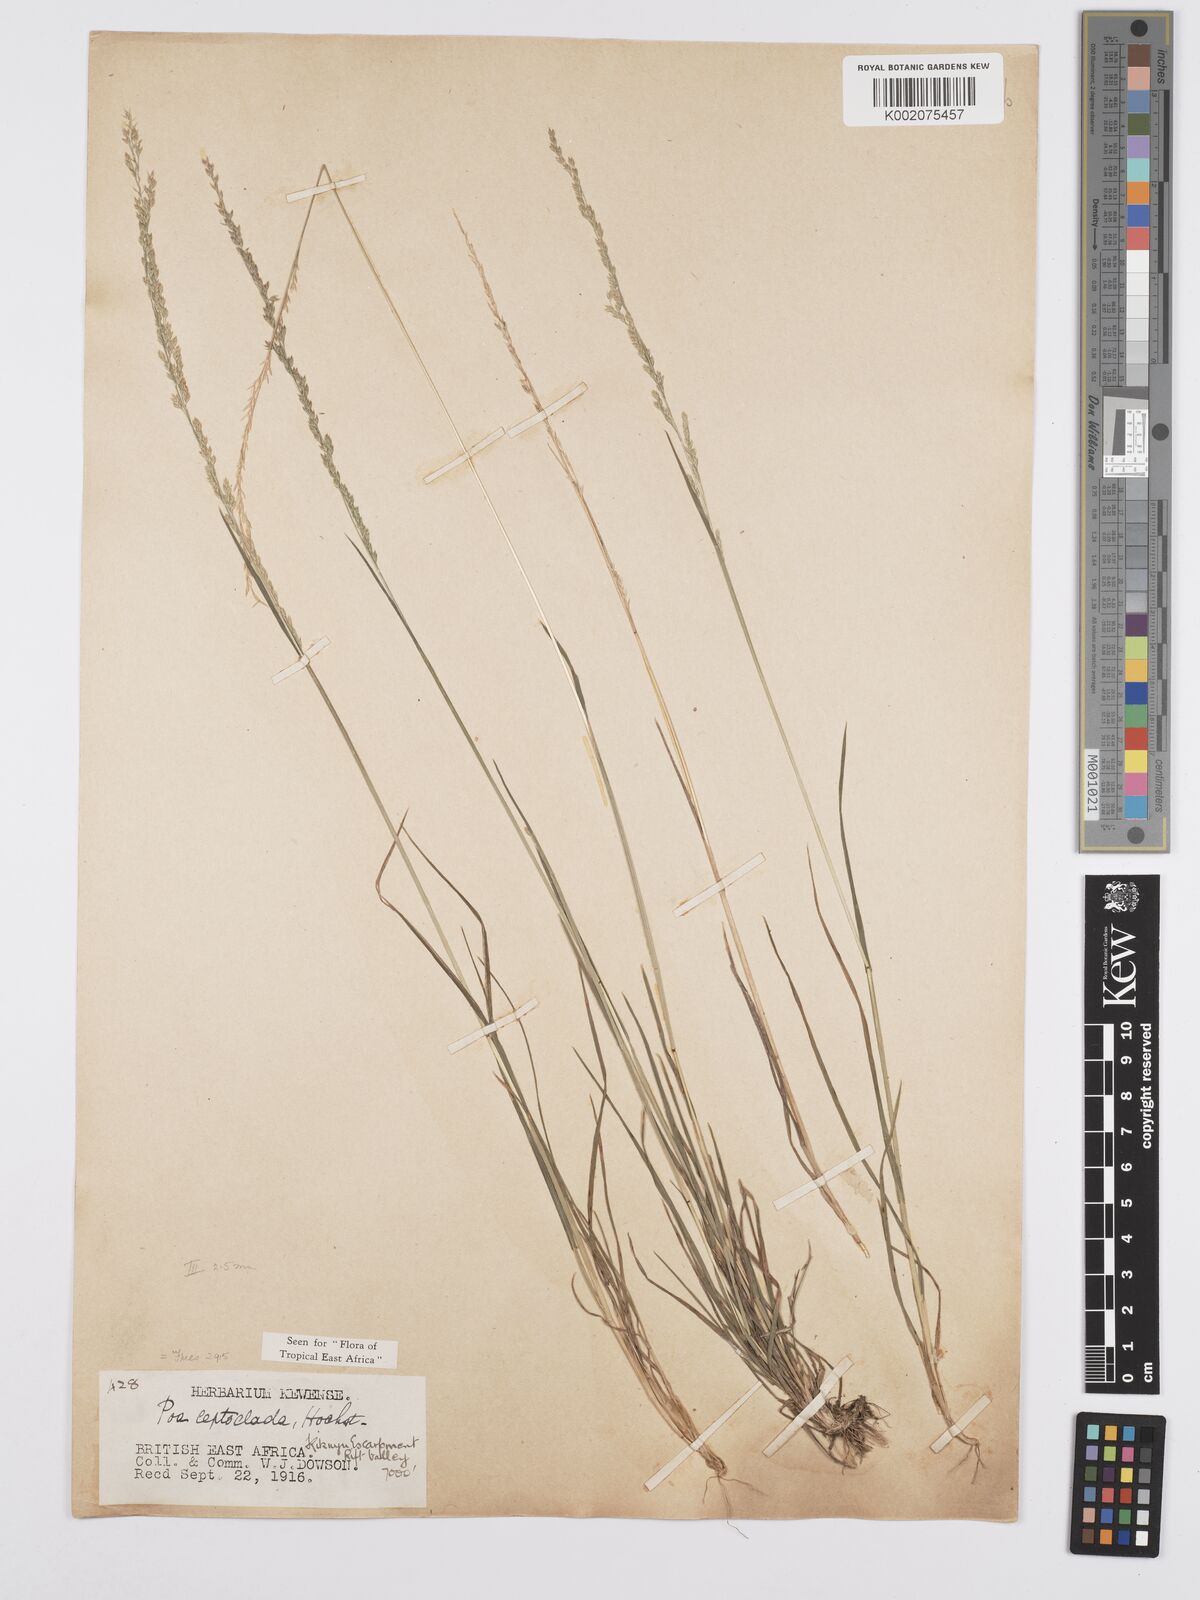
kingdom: Plantae
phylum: Tracheophyta
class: Liliopsida
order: Poales
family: Poaceae
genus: Poa
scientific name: Poa leptoclada
